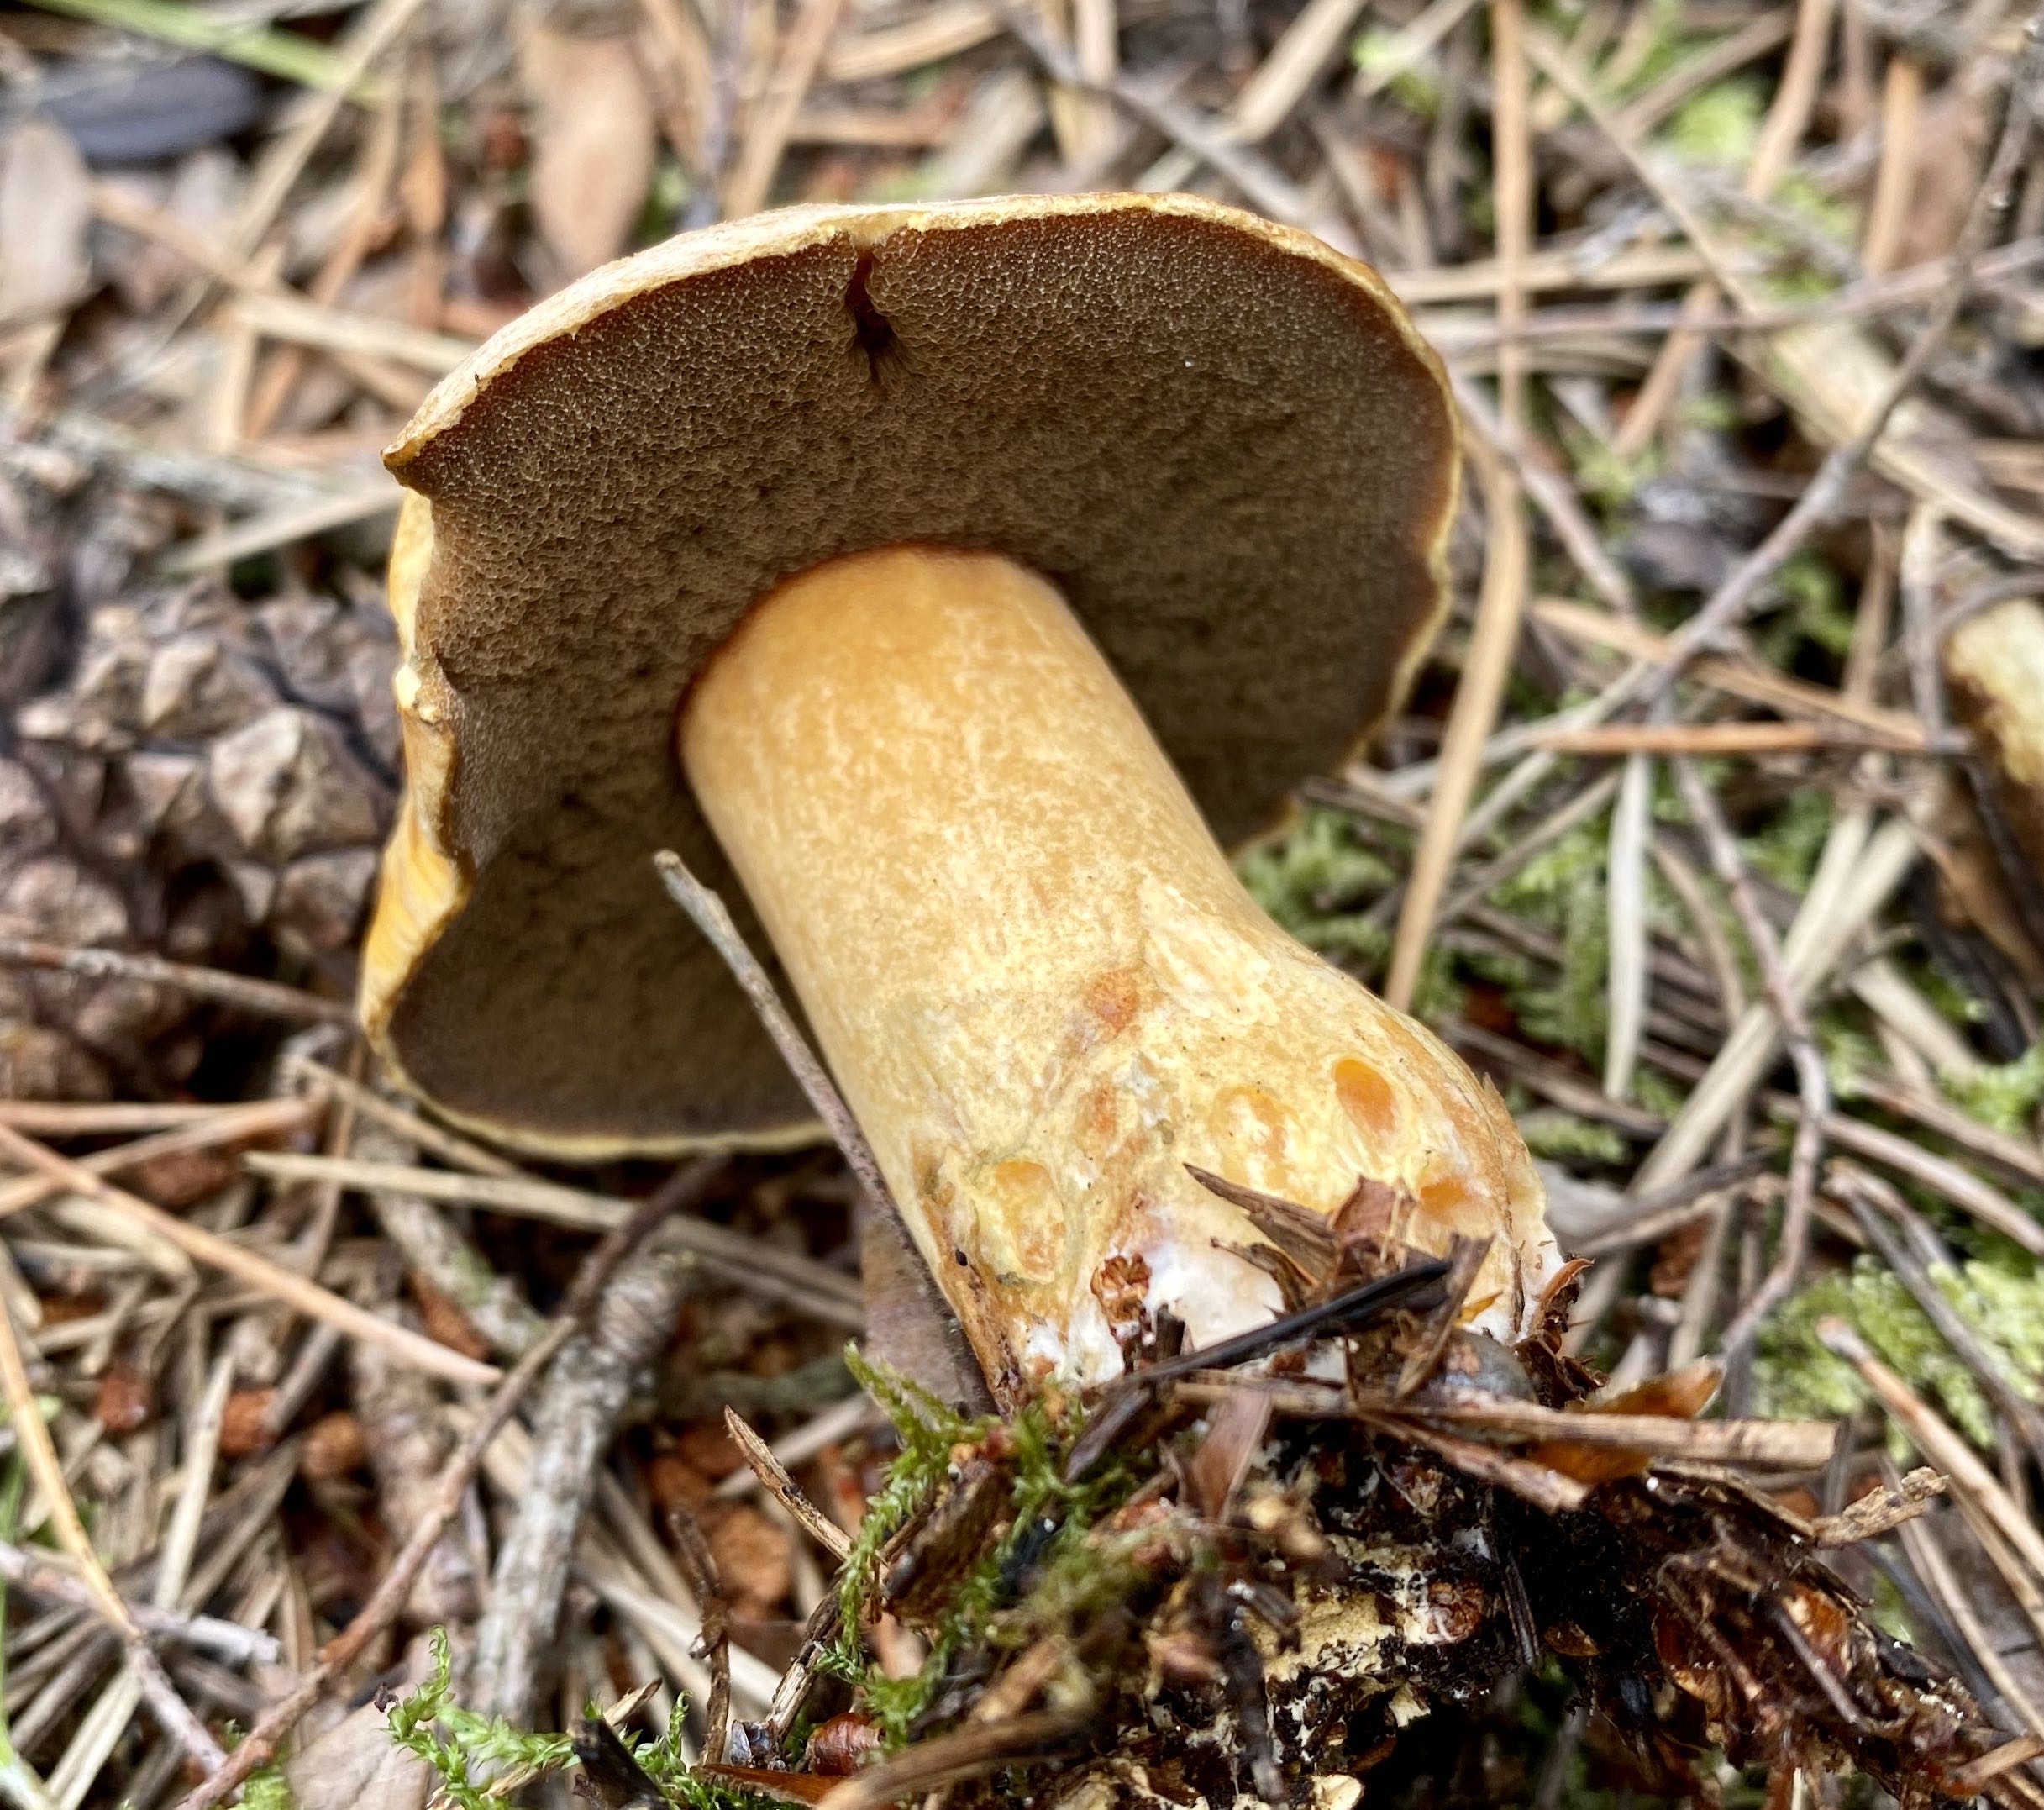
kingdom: Fungi
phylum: Basidiomycota
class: Agaricomycetes
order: Boletales
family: Suillaceae
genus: Suillus
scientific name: Suillus variegatus
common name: broget slimrørhat
